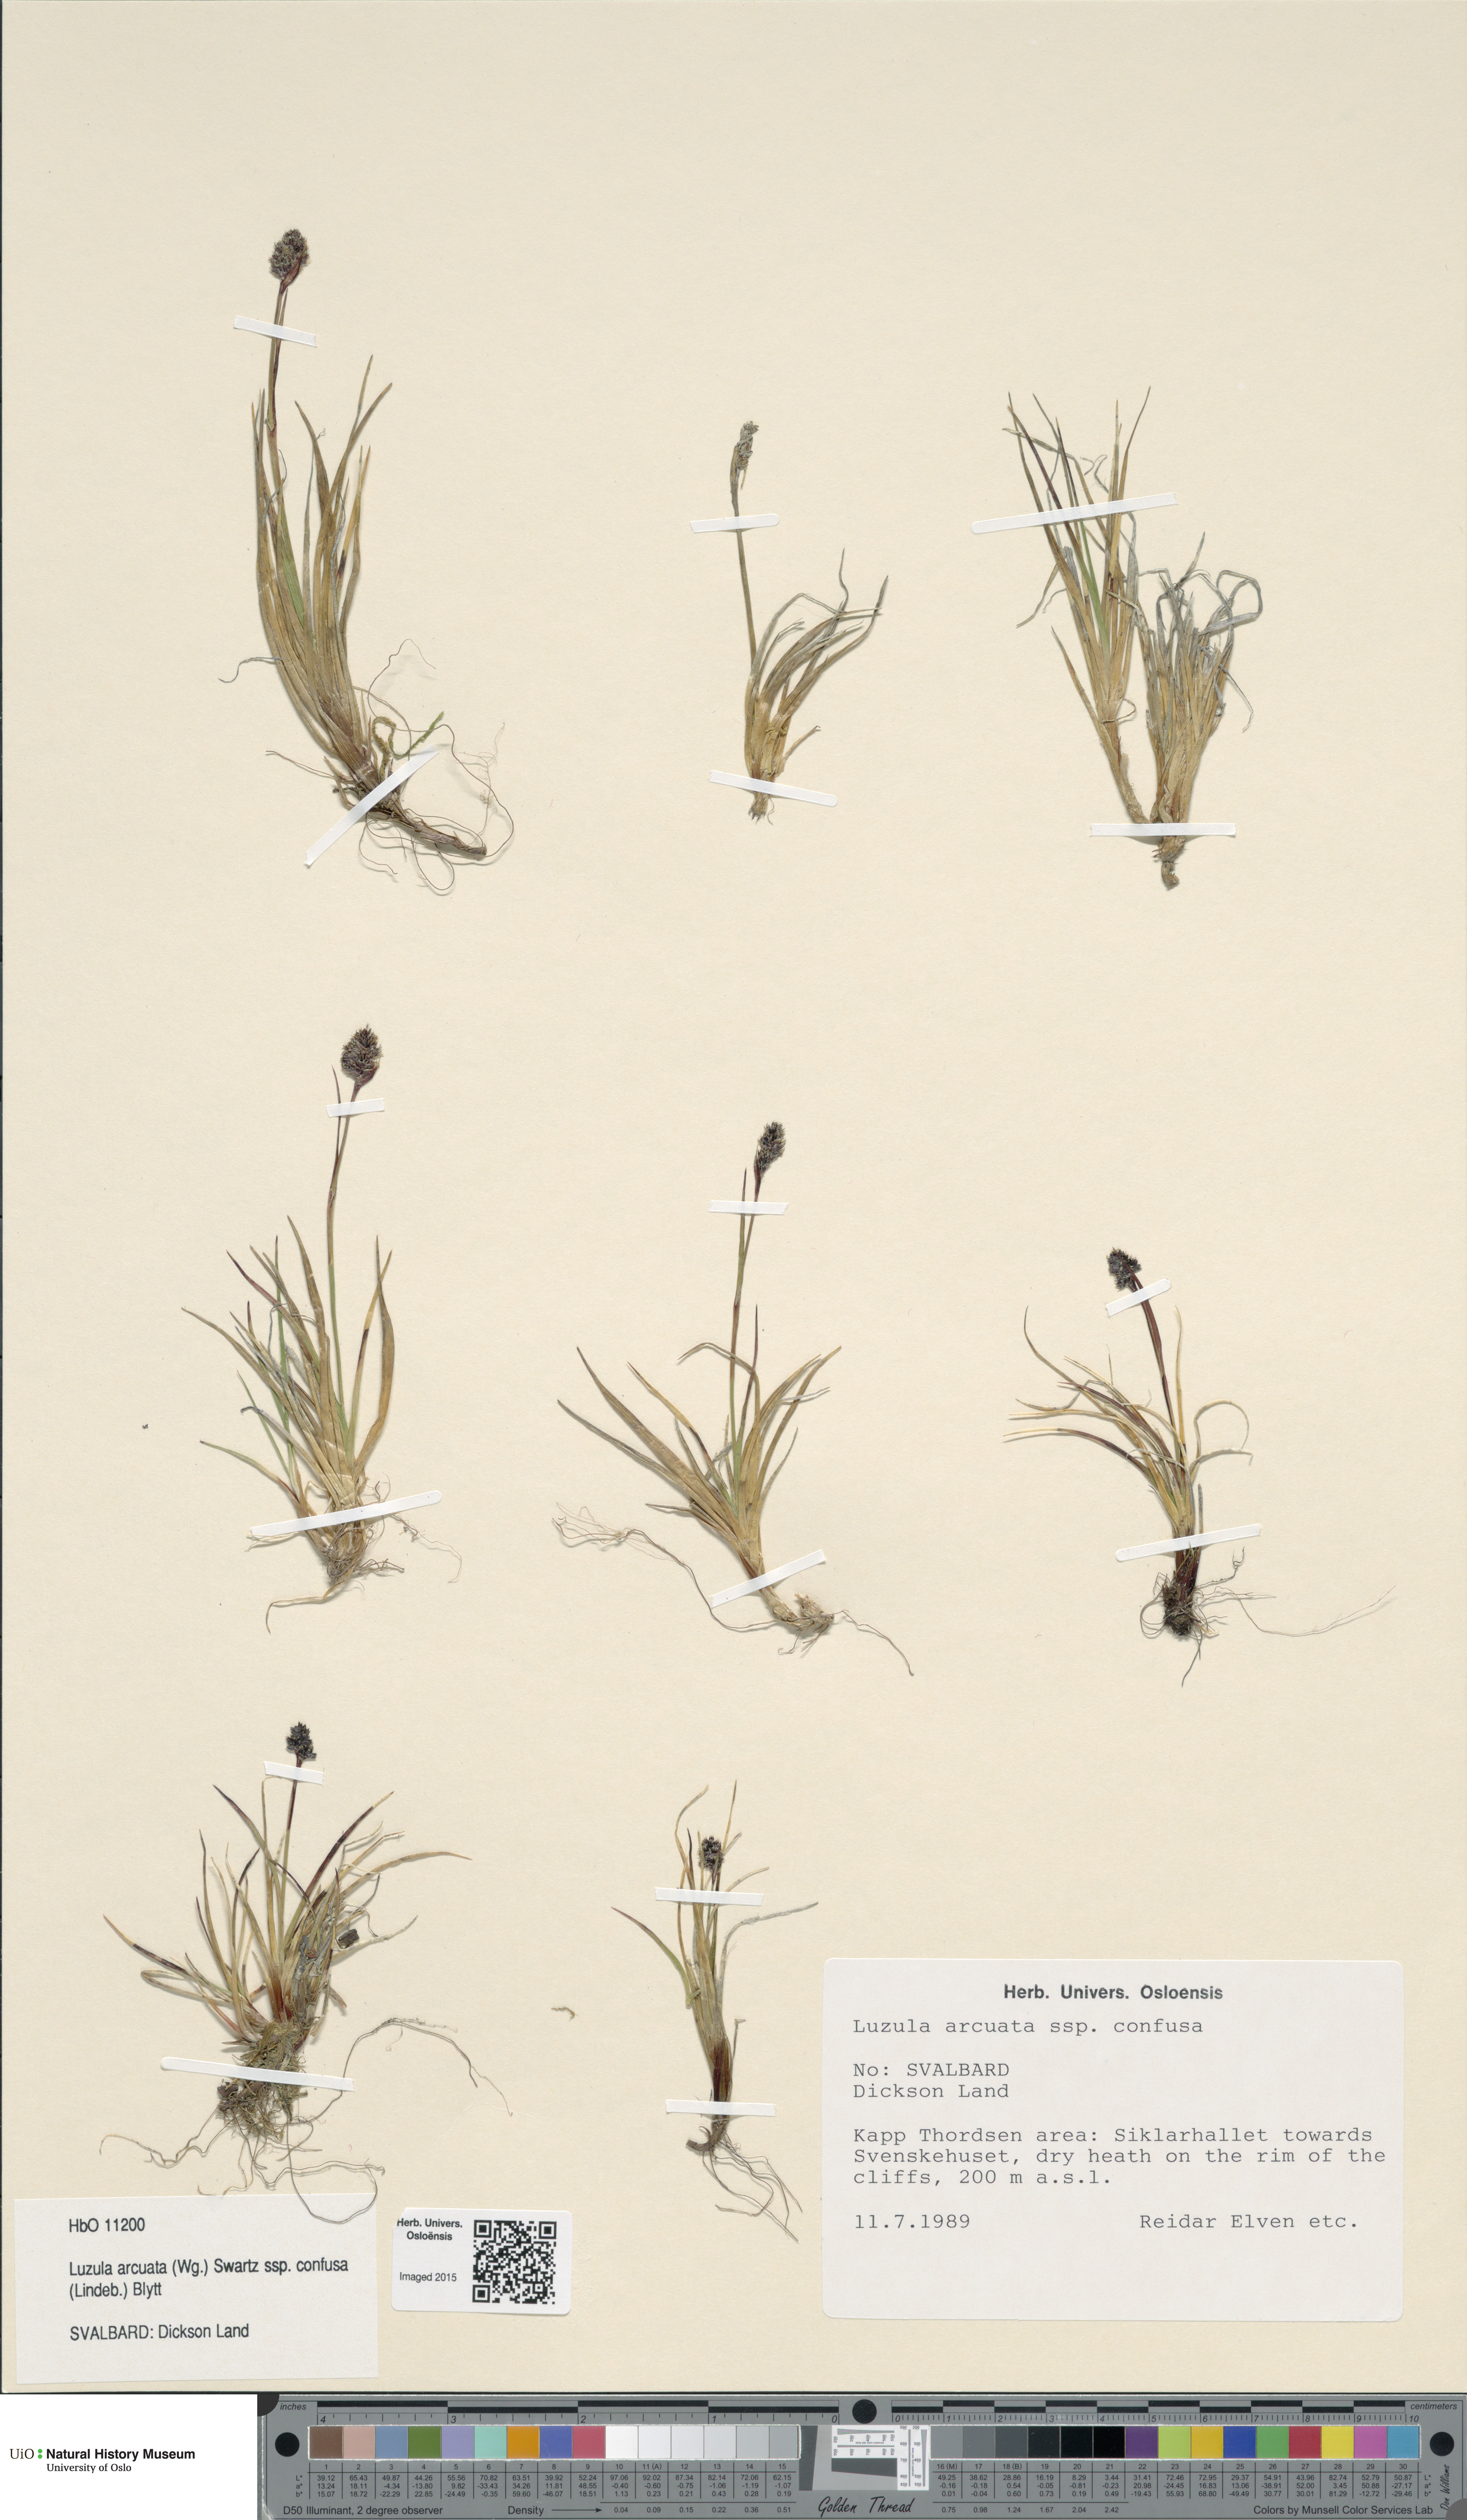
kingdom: Plantae
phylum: Tracheophyta
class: Liliopsida
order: Poales
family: Juncaceae
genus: Luzula
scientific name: Luzula confusa
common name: Northern wood rush
